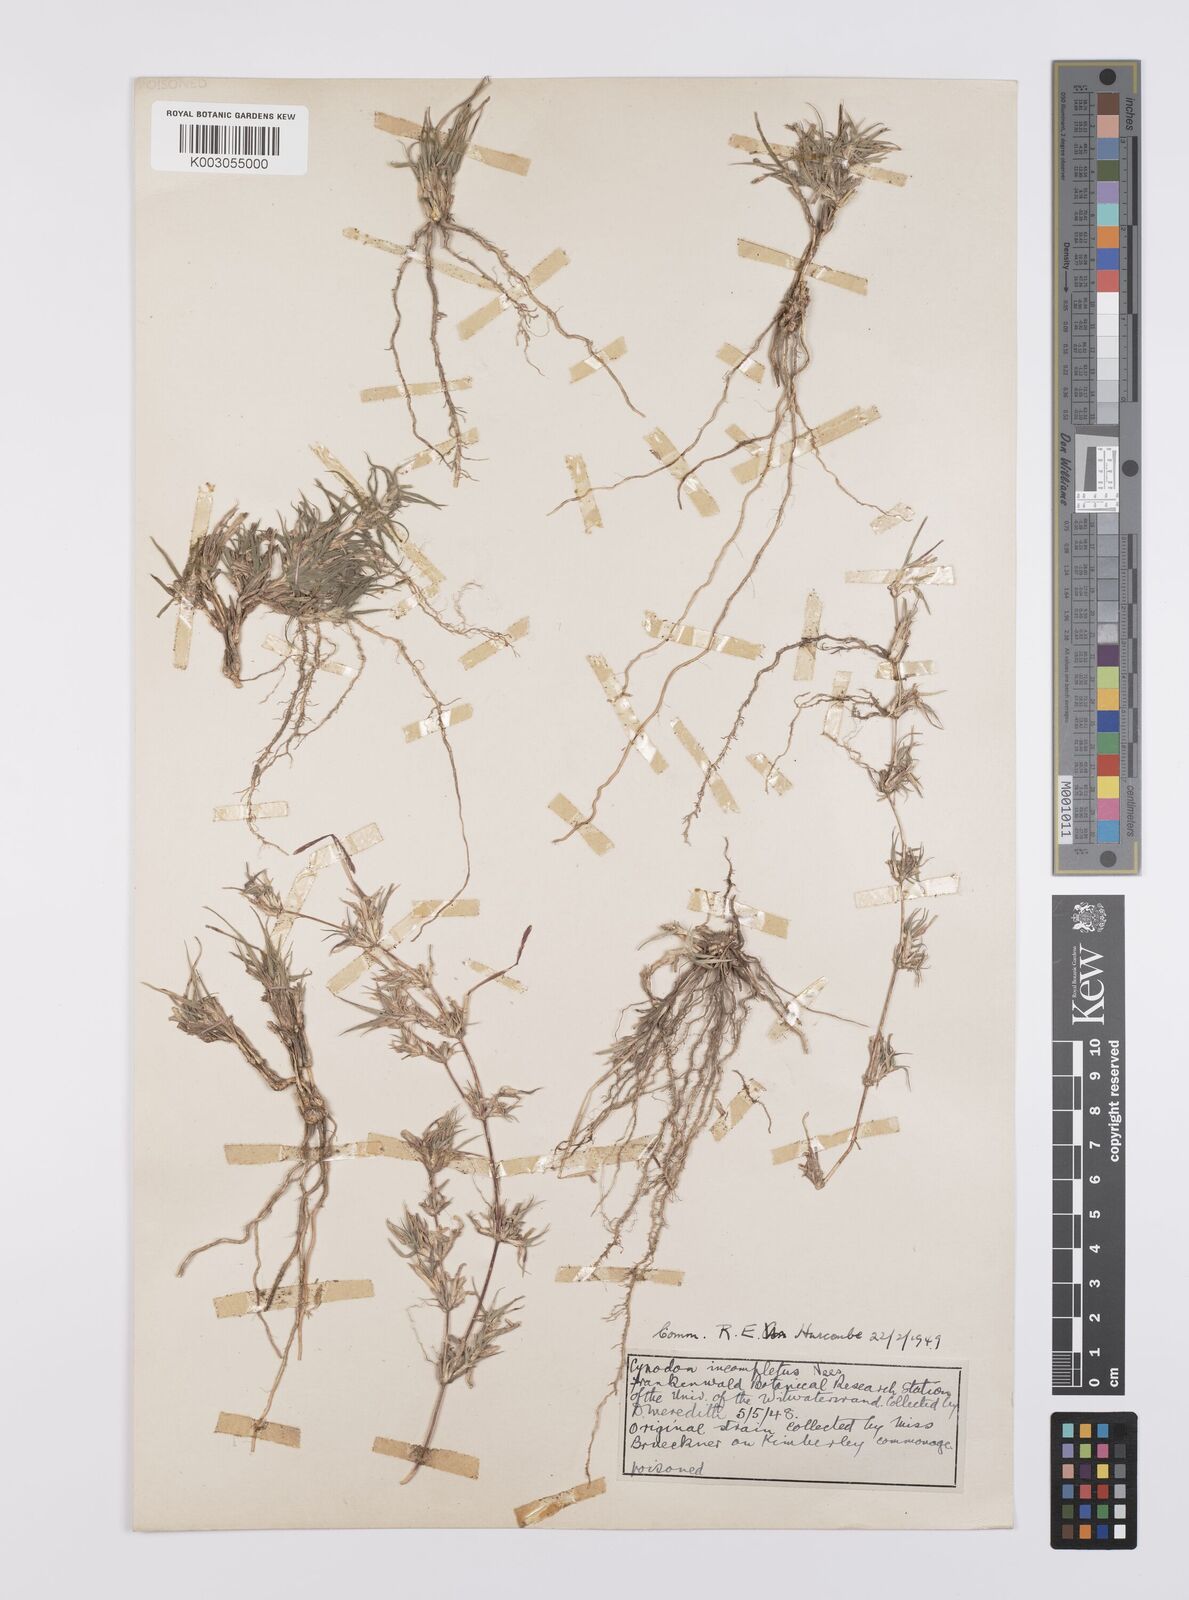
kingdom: Plantae
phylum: Tracheophyta
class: Liliopsida
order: Poales
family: Poaceae
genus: Cynodon
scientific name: Cynodon incompletus
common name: African bermuda-grass
